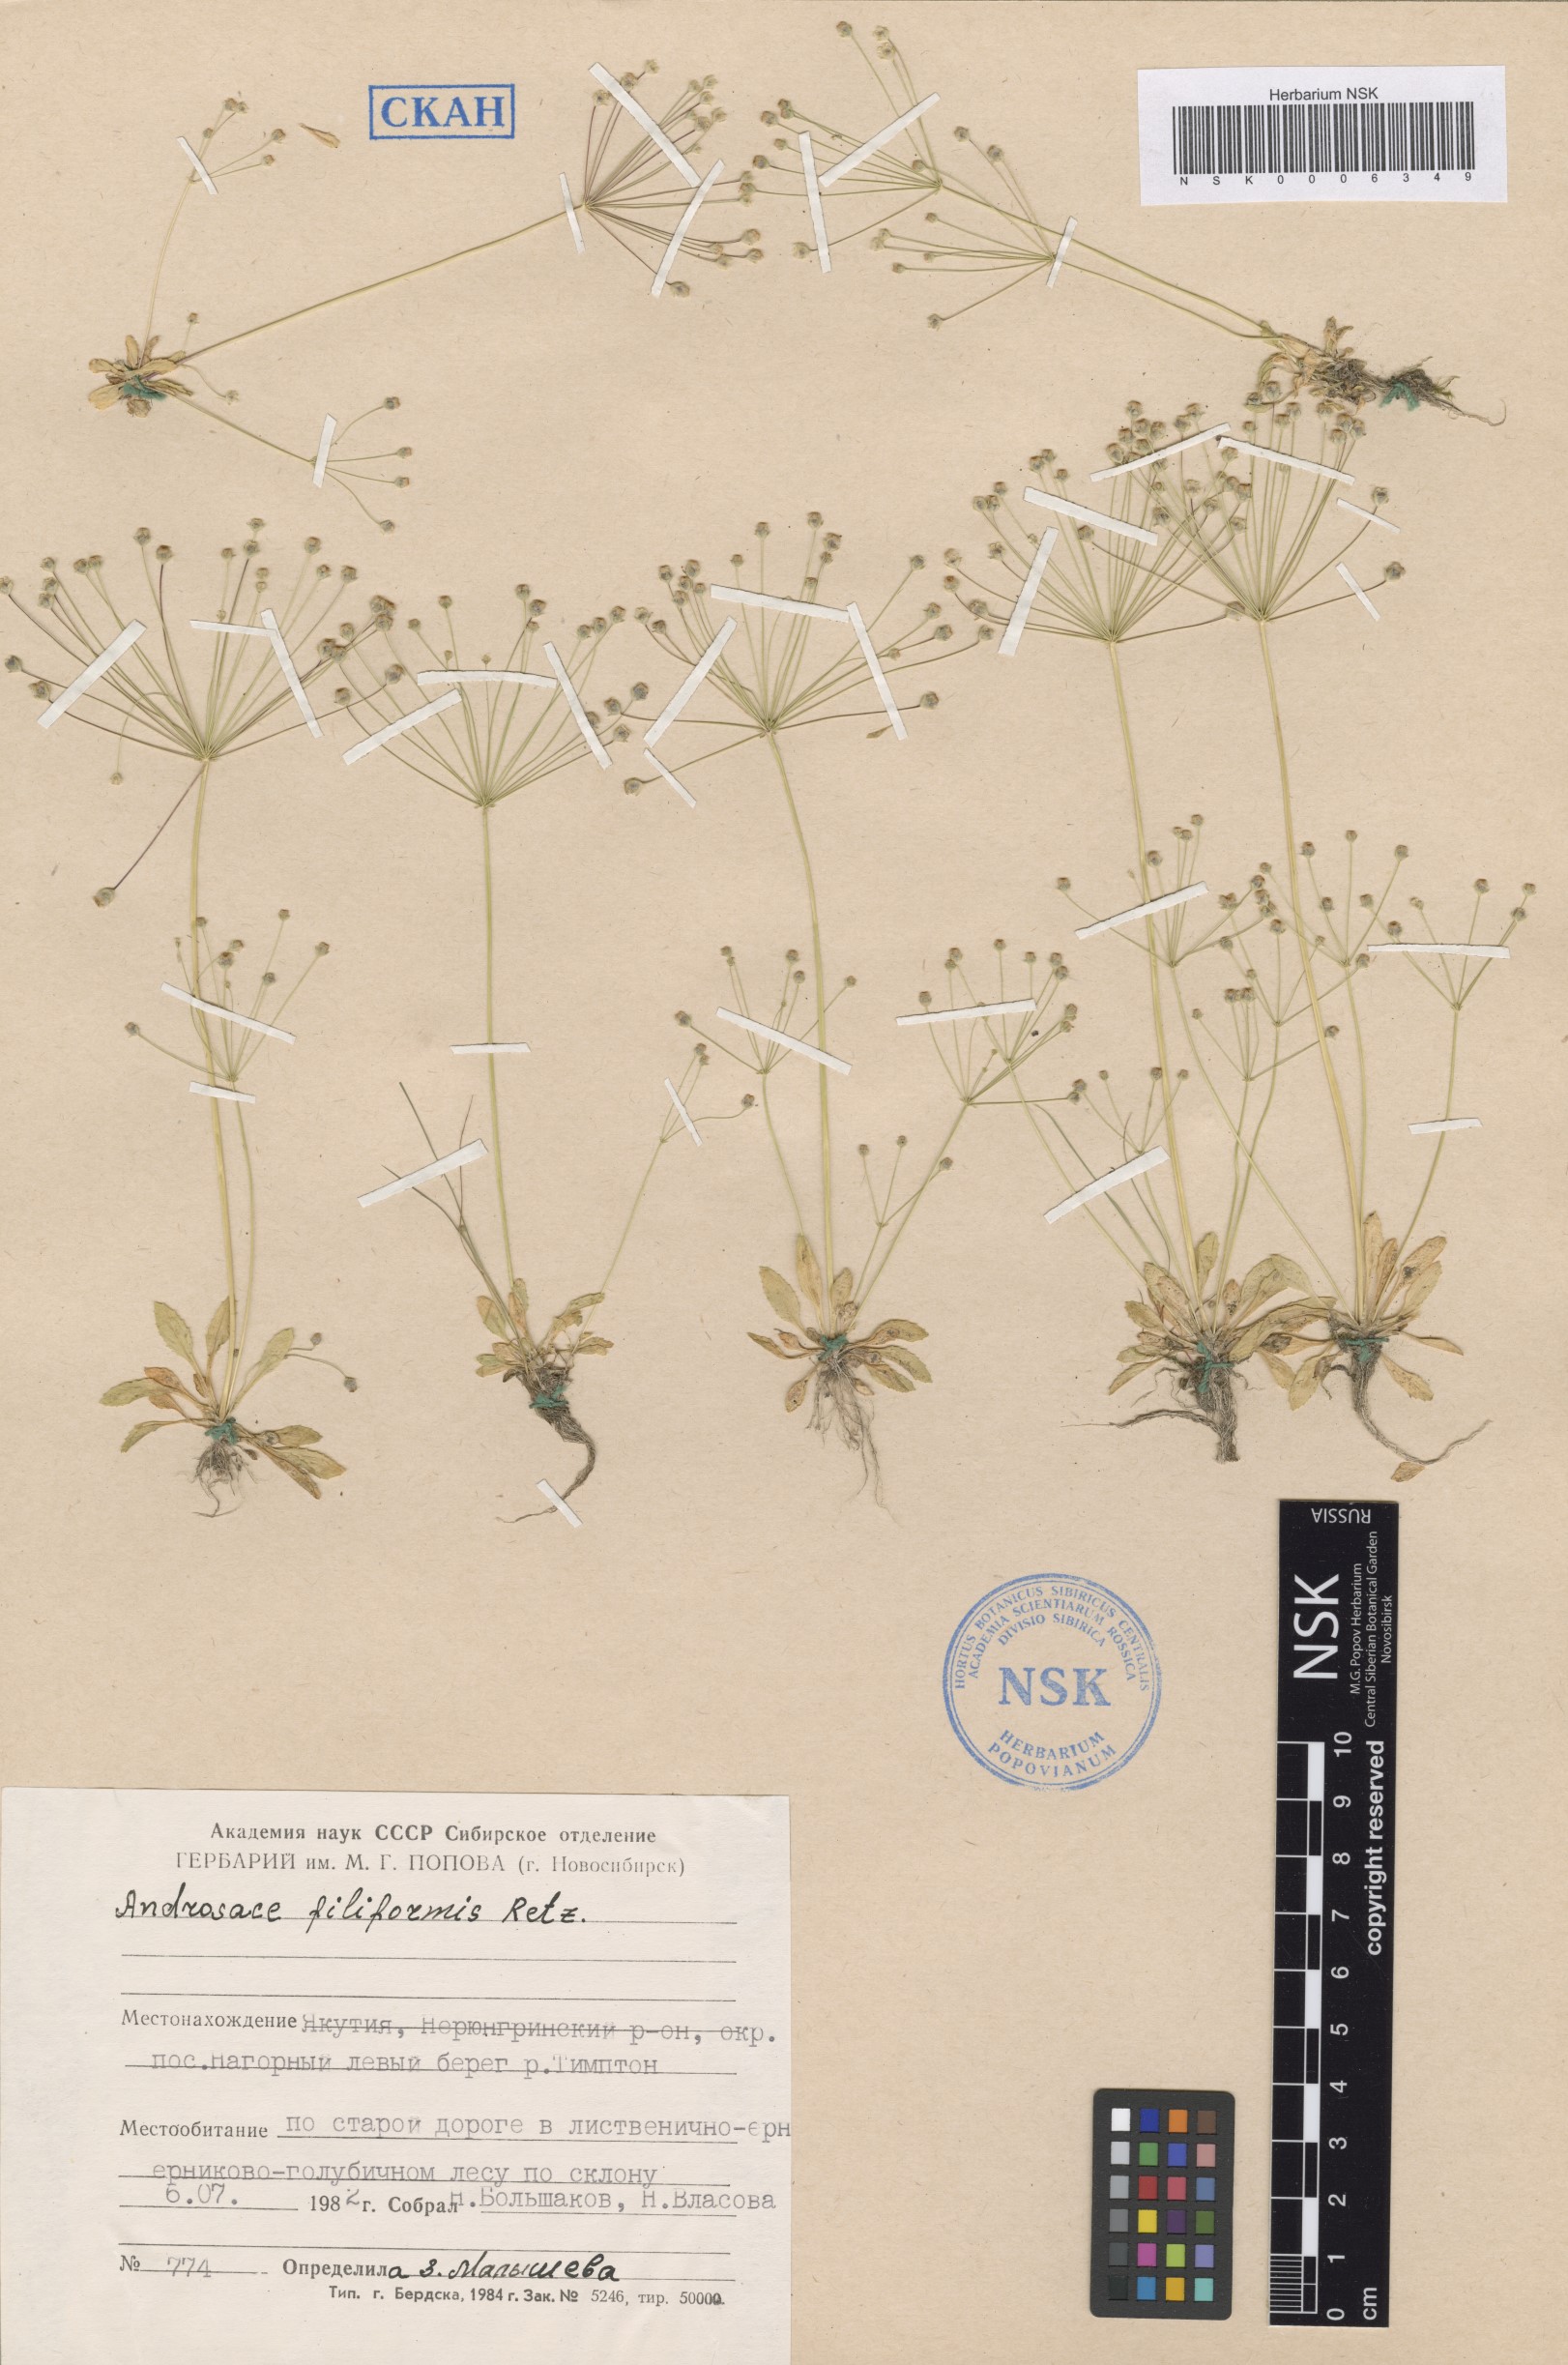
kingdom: Plantae
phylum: Tracheophyta
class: Magnoliopsida
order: Ericales
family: Primulaceae
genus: Androsace
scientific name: Androsace filiformis
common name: Filiform rock jasmine
